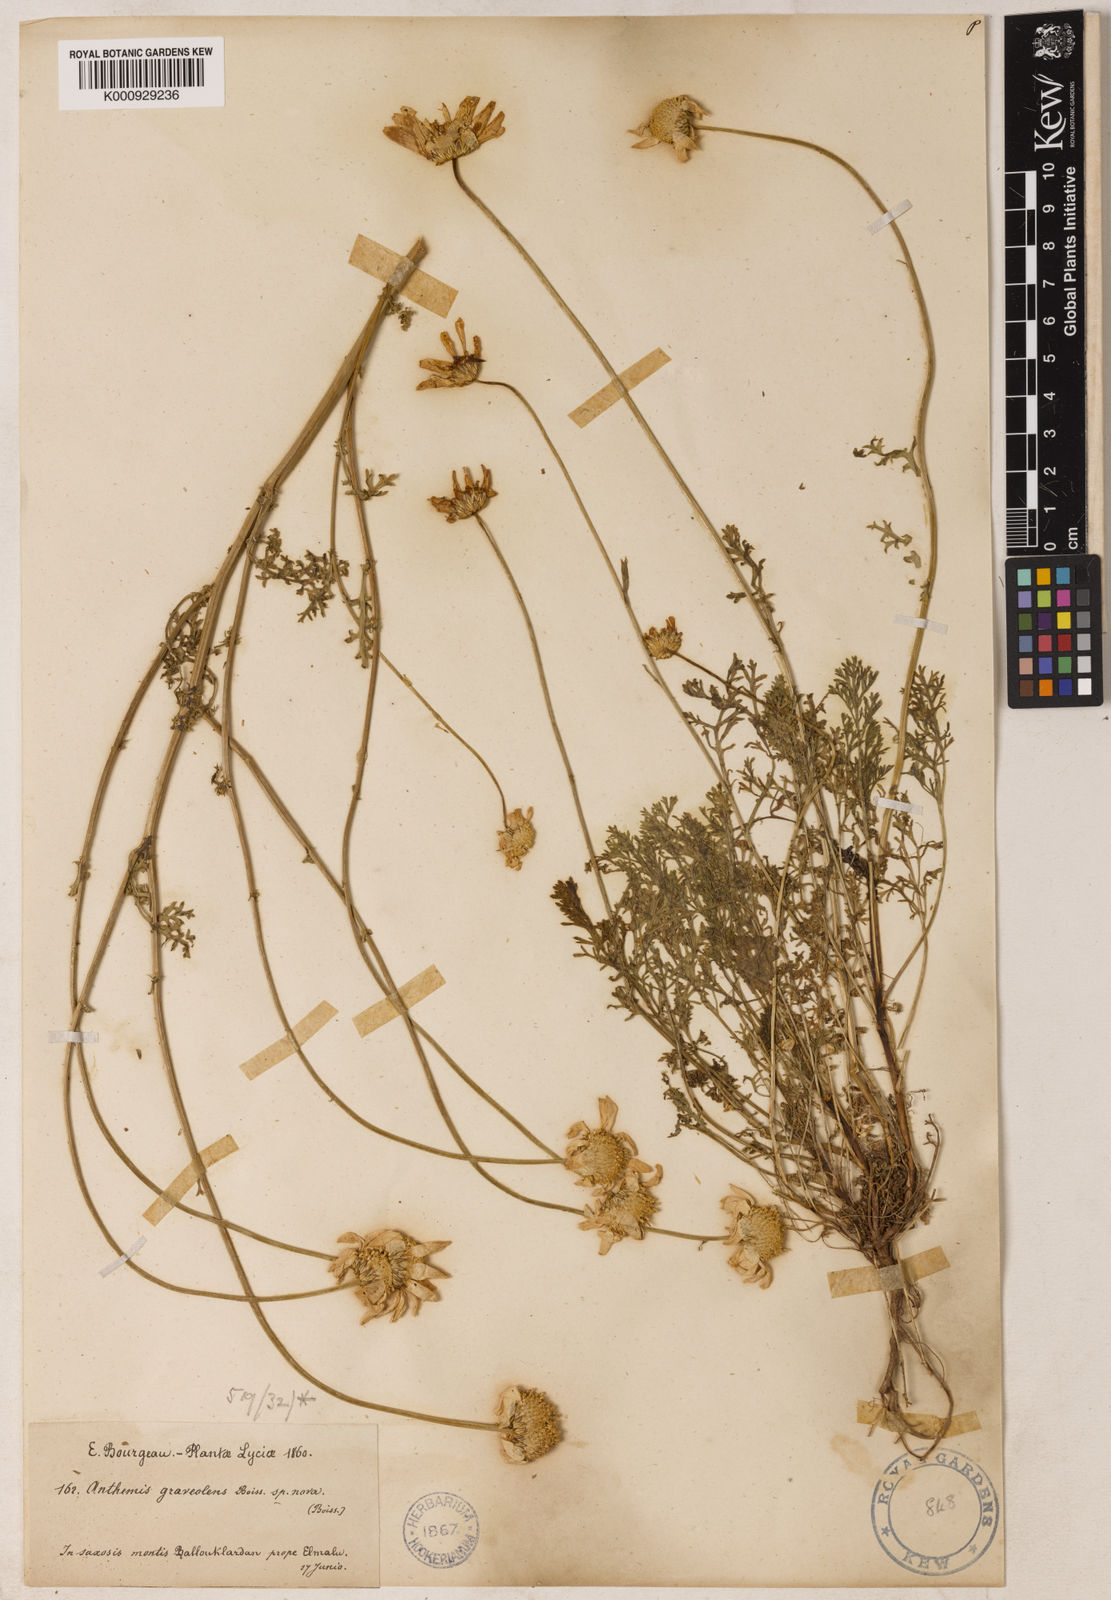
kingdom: Plantae
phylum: Tracheophyta
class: Magnoliopsida
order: Asterales
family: Asteraceae
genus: Anthemis
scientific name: Anthemis cretica
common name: Mountain dog-daisy
